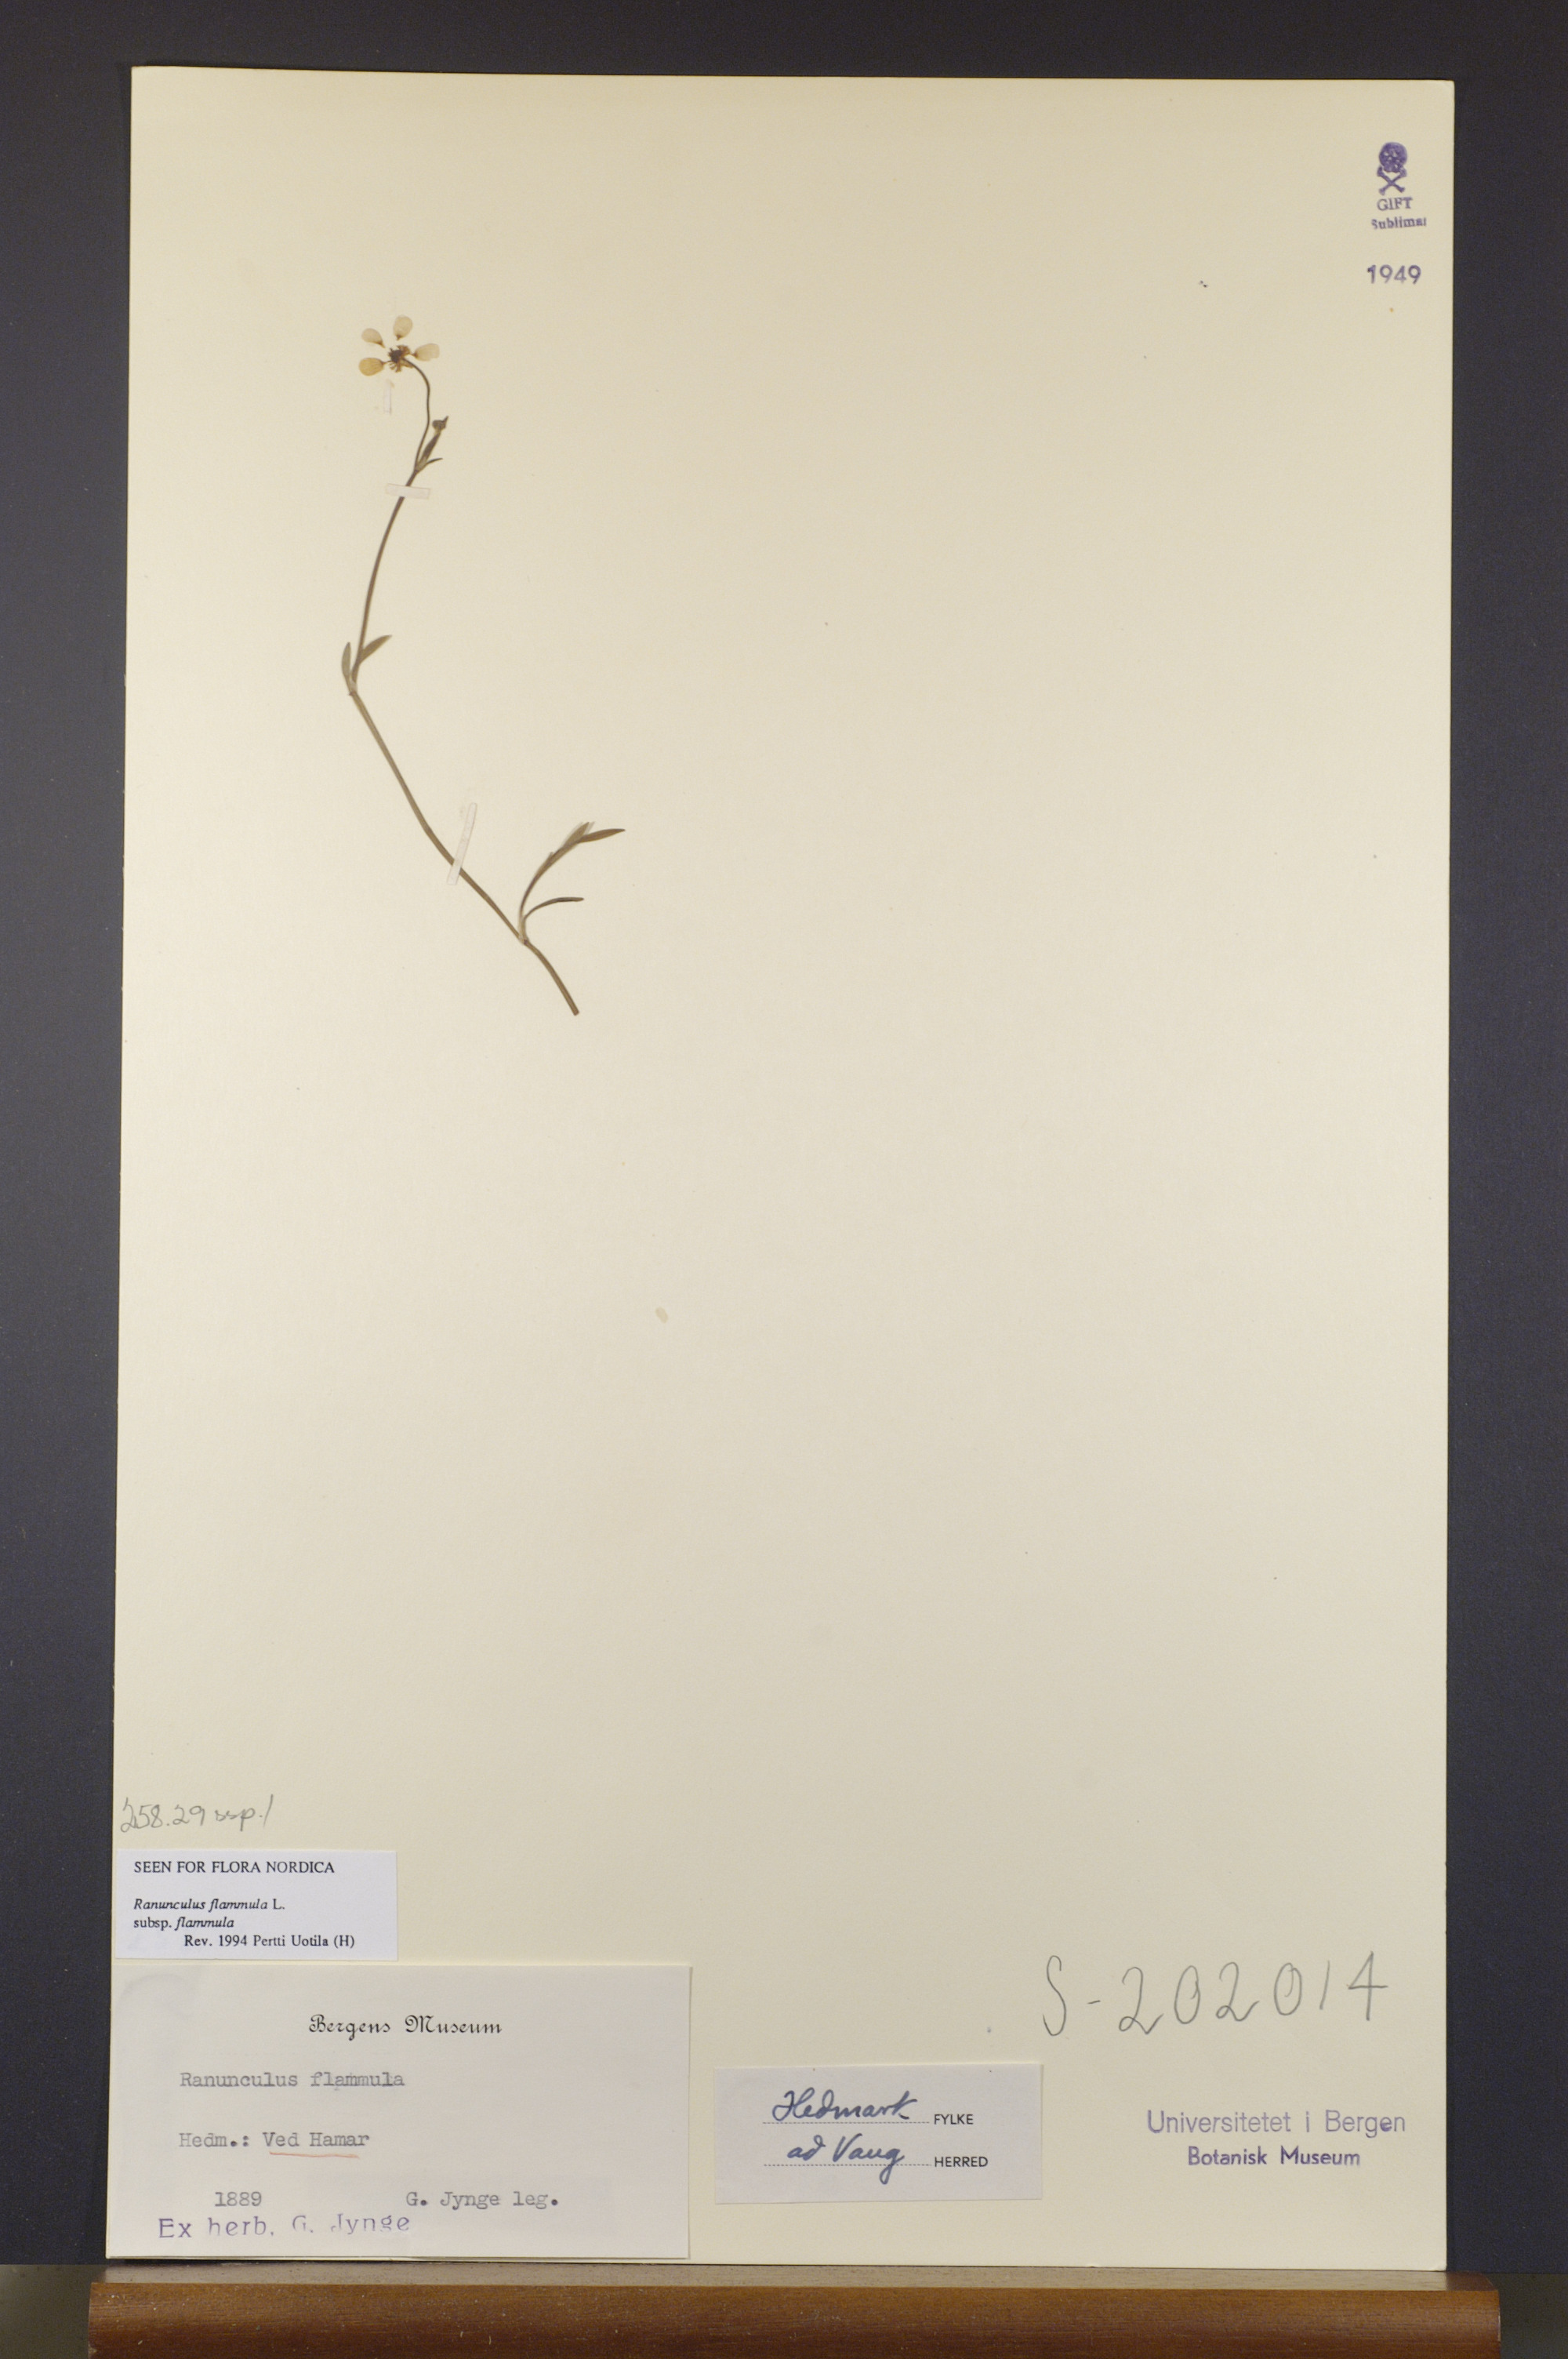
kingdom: Plantae
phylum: Tracheophyta
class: Magnoliopsida
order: Ranunculales
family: Ranunculaceae
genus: Ranunculus
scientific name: Ranunculus flammula
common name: Lesser spearwort
